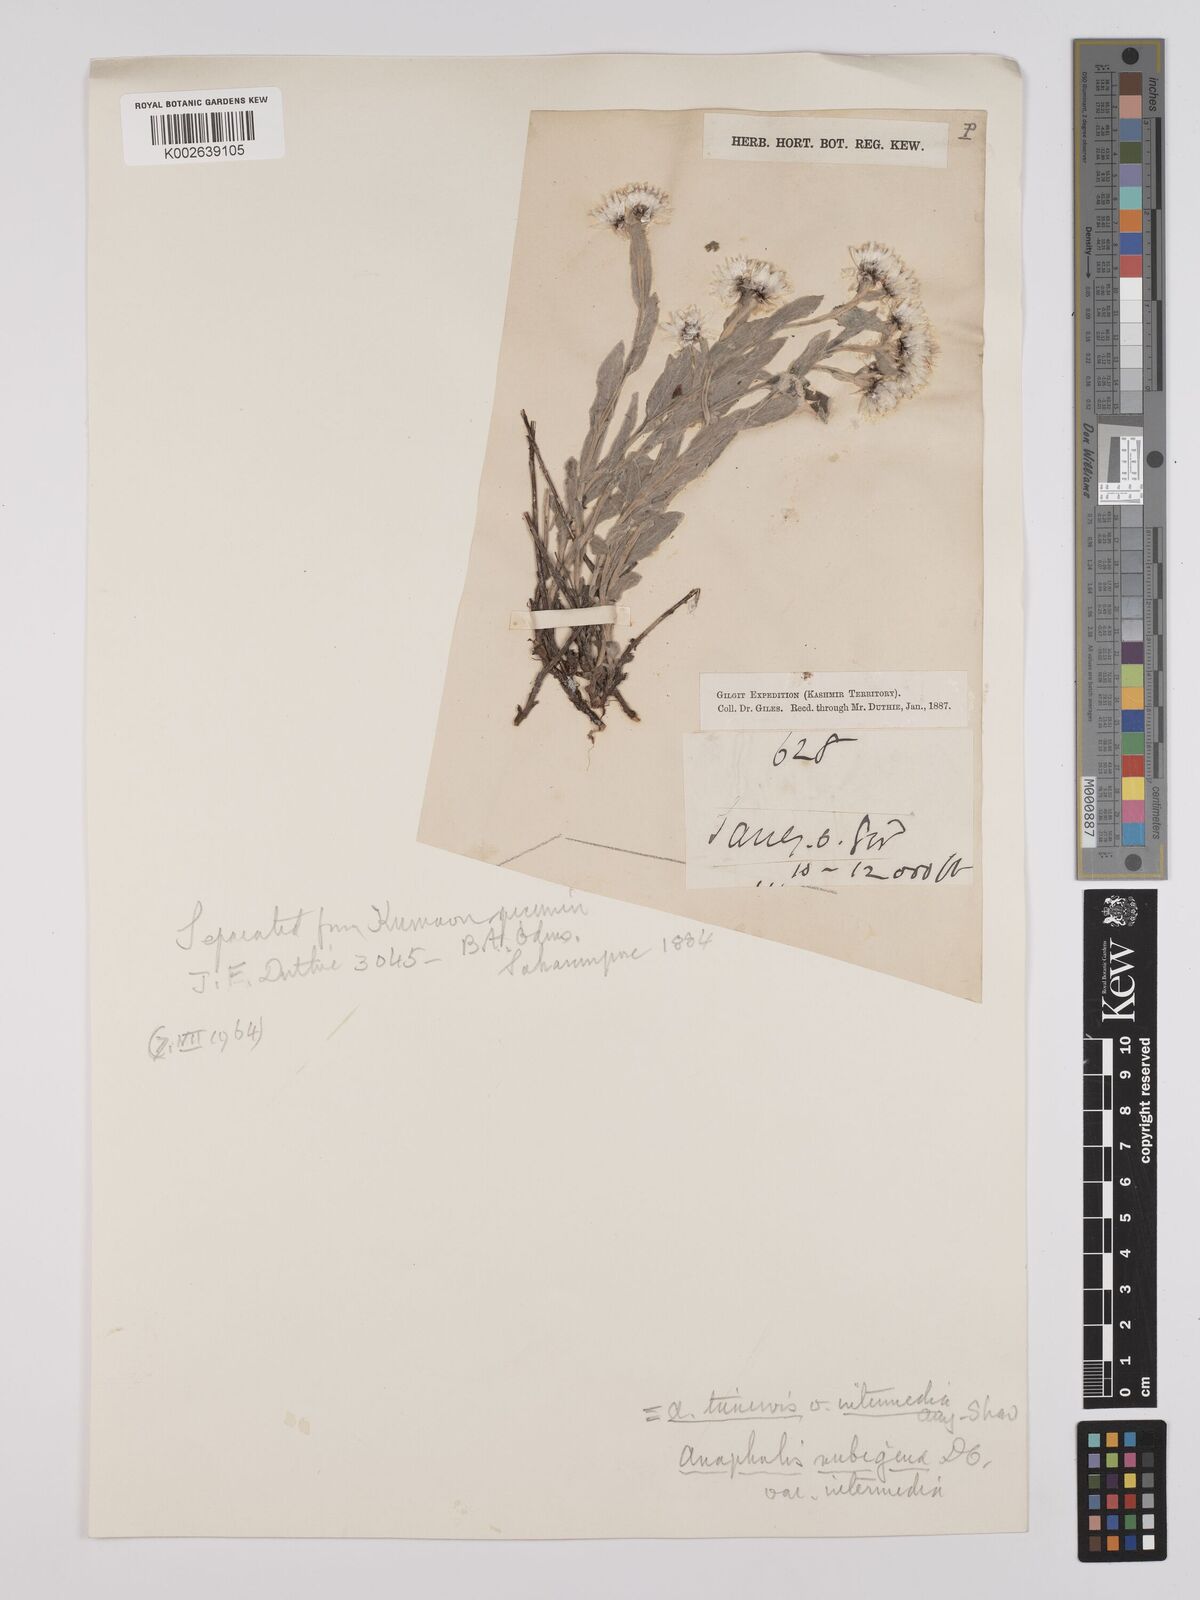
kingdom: Plantae
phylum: Tracheophyta
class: Magnoliopsida
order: Asterales
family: Asteraceae
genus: Anaphalis
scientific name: Anaphalis nepalensis
